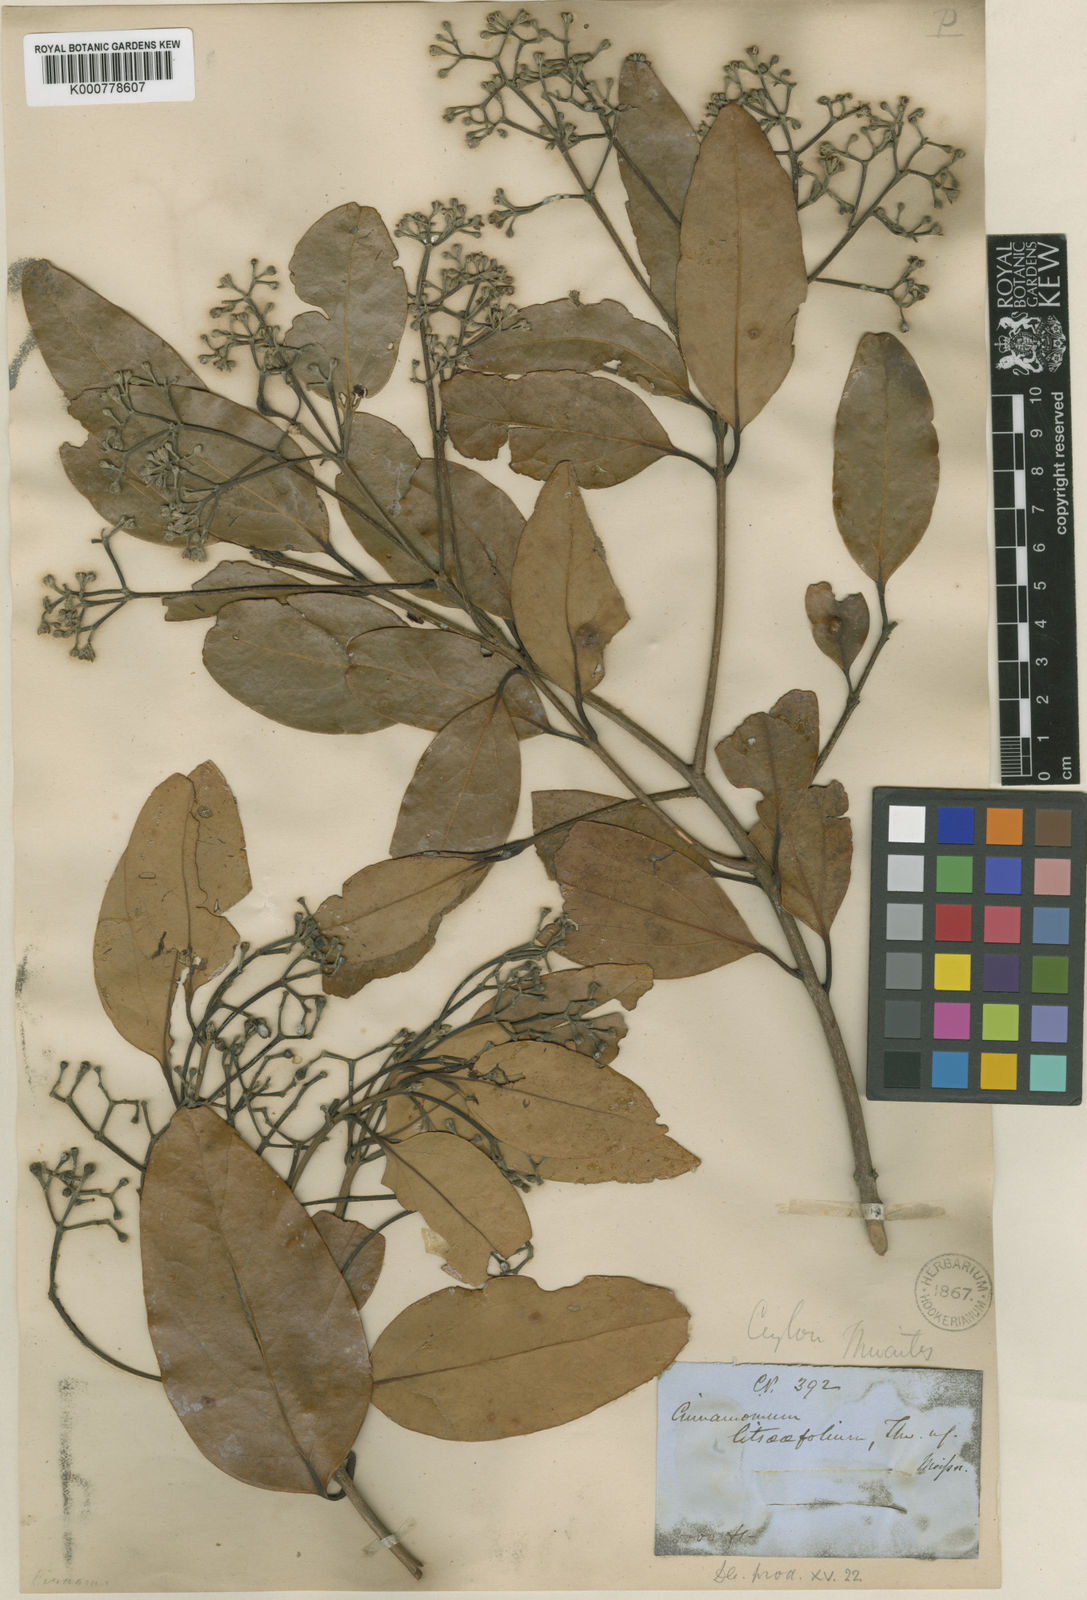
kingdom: Plantae
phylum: Tracheophyta
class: Magnoliopsida
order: Laurales
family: Lauraceae
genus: Cinnamomum
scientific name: Cinnamomum litsaeifolium
